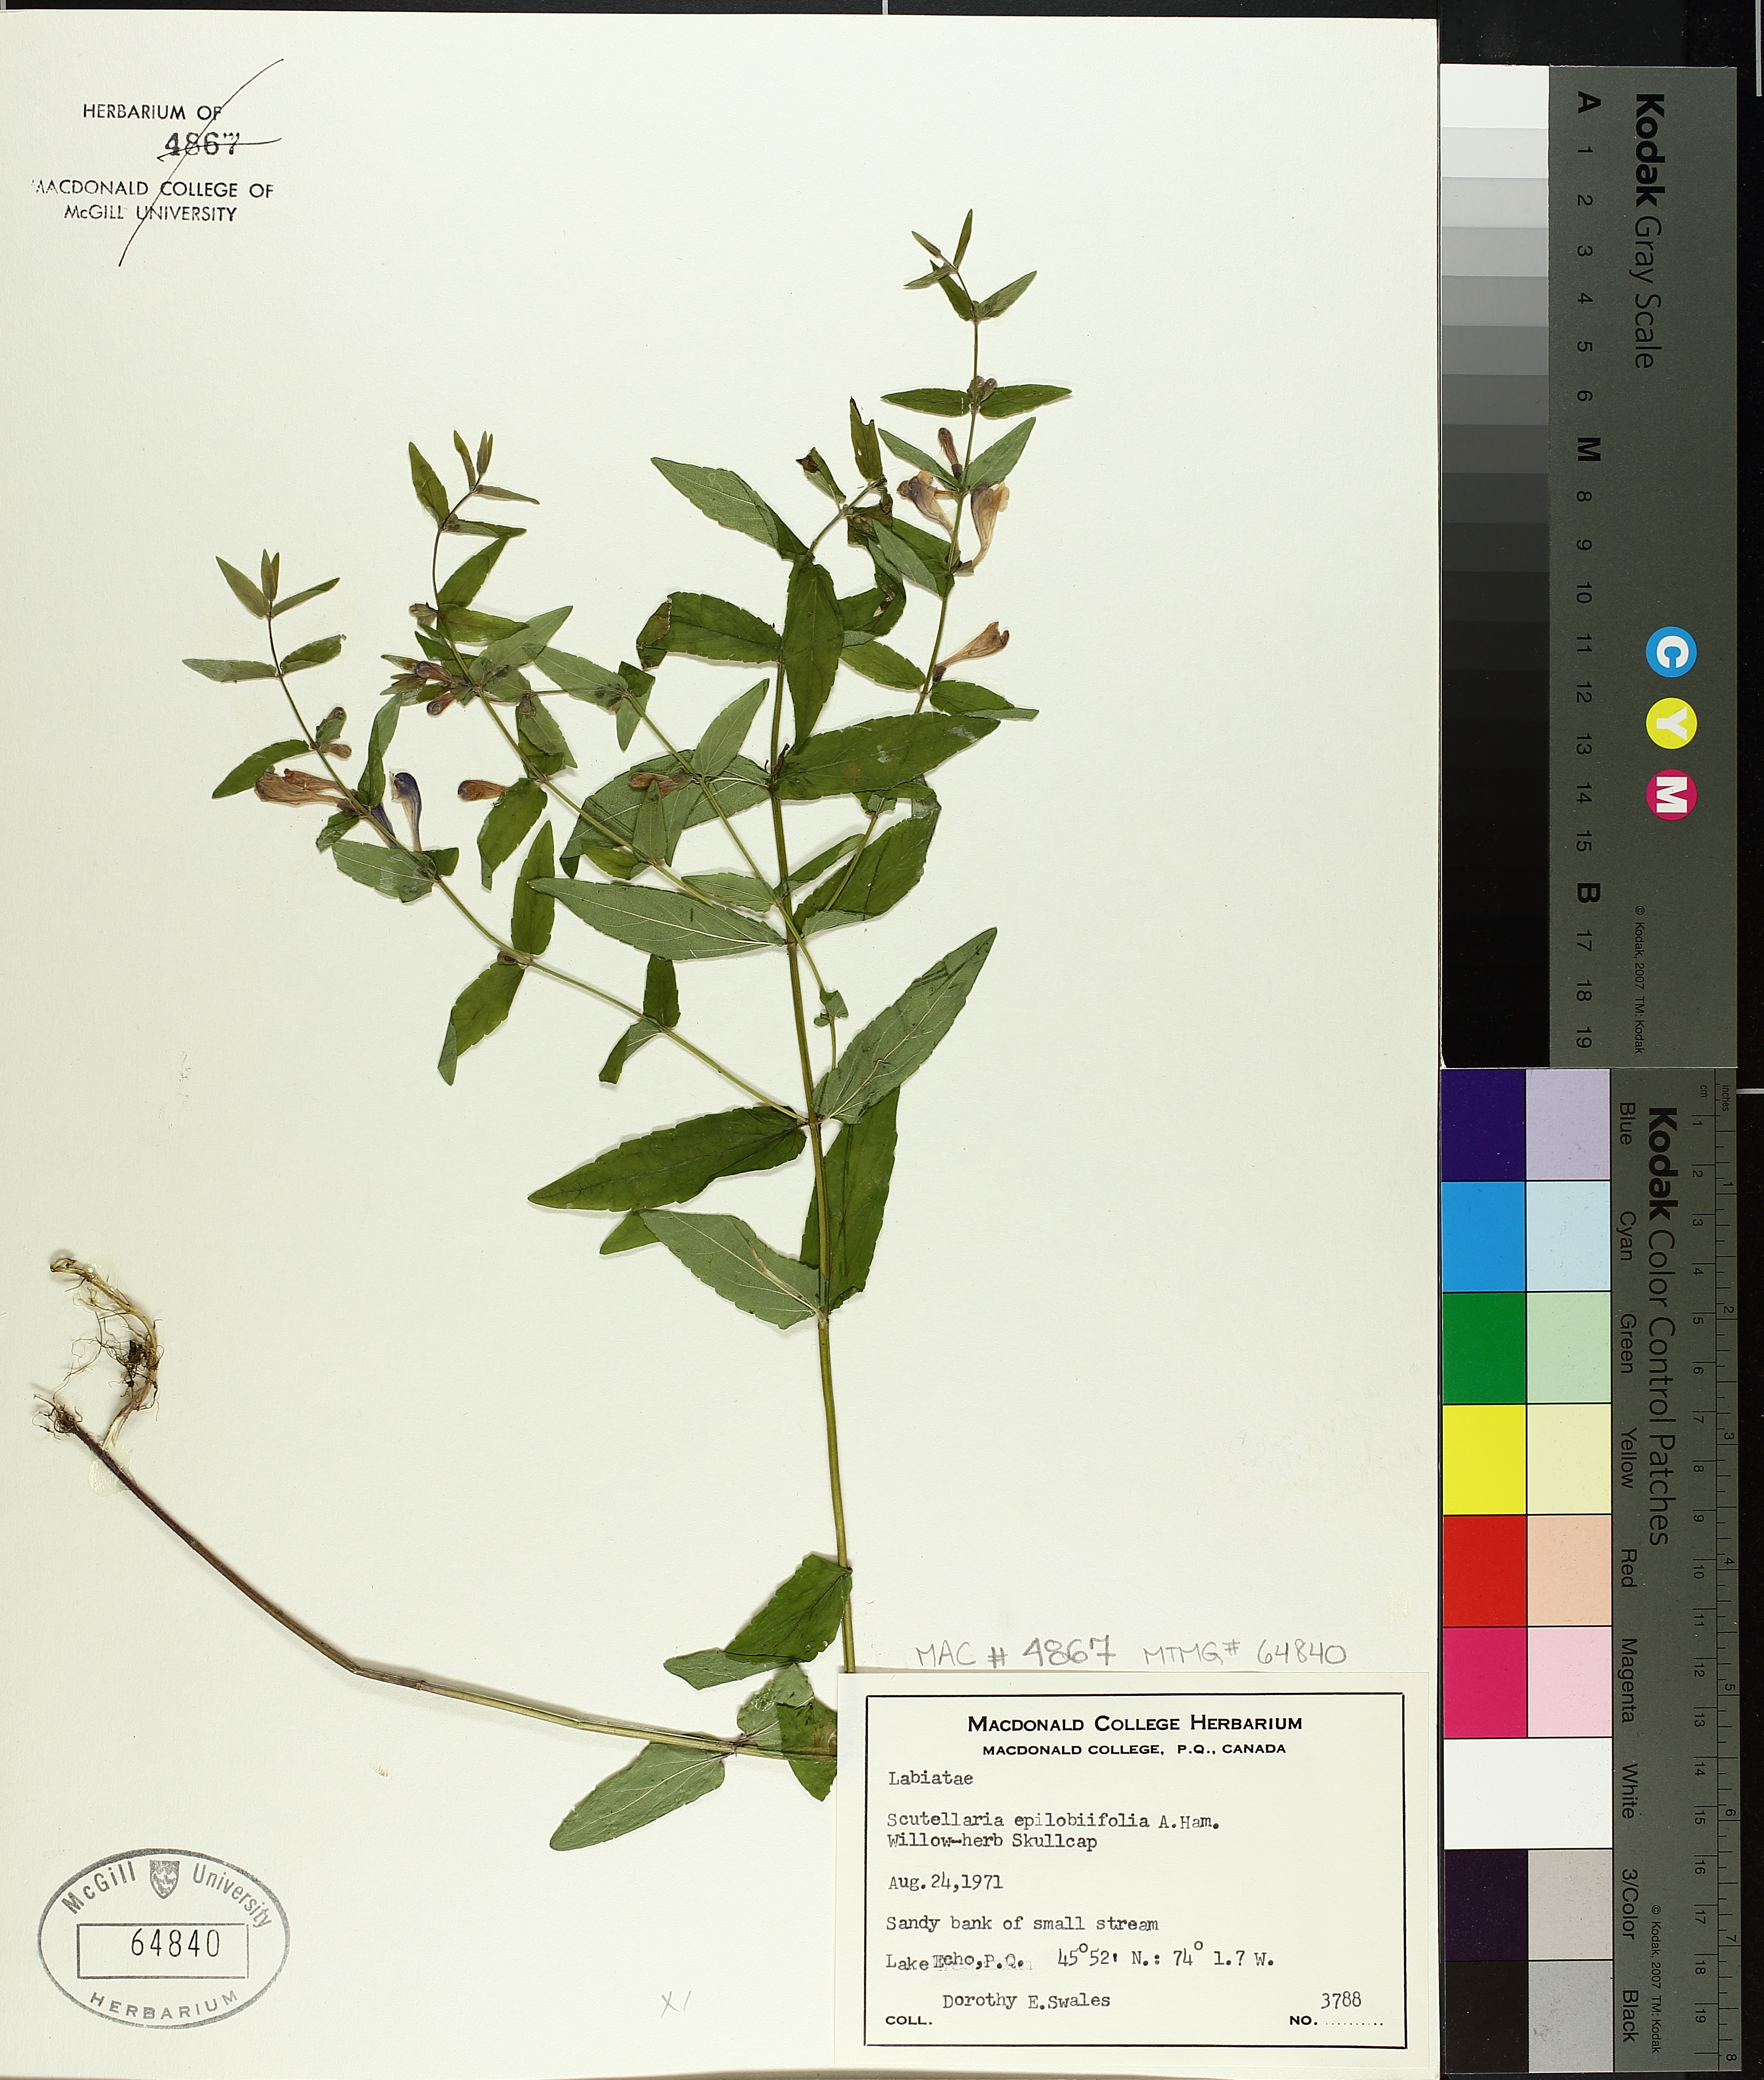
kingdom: Plantae
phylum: Tracheophyta
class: Magnoliopsida
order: Lamiales
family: Lamiaceae
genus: Scutellaria
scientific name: Scutellaria galericulata
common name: Skullcap
